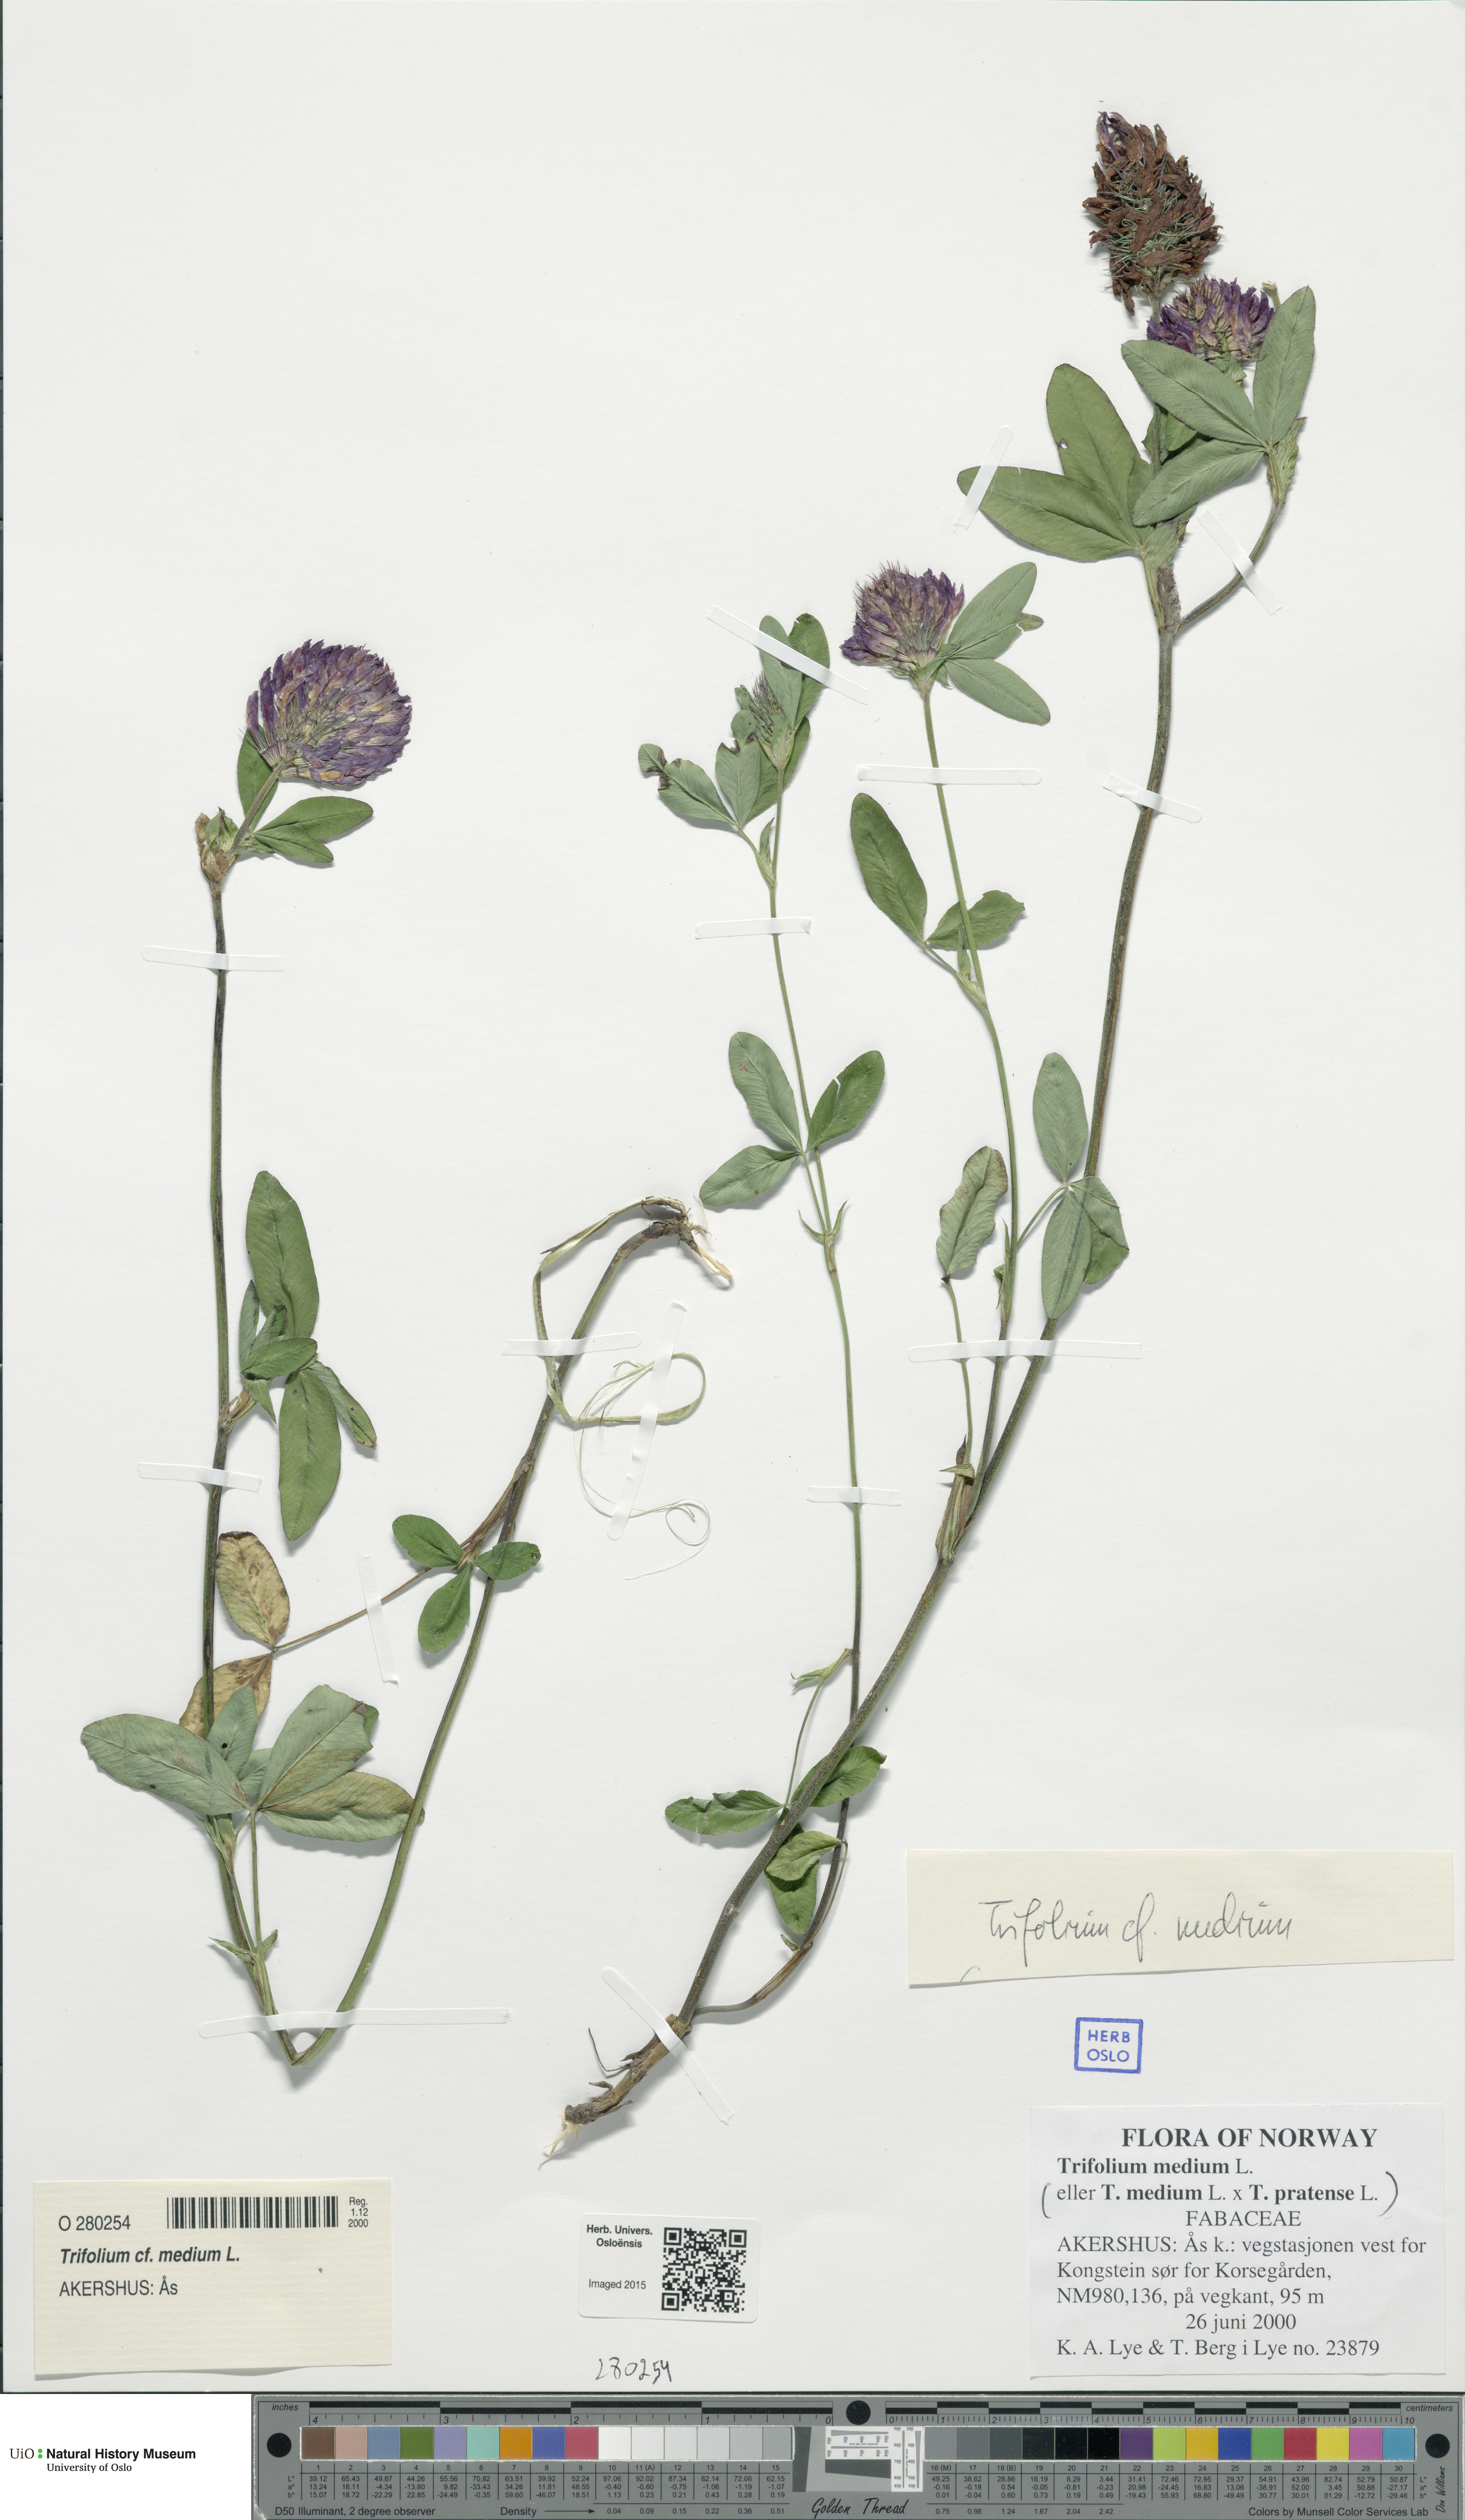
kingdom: Plantae
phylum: Tracheophyta
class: Magnoliopsida
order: Fabales
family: Fabaceae
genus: Trifolium
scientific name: Trifolium medium
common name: Zigzag clover
